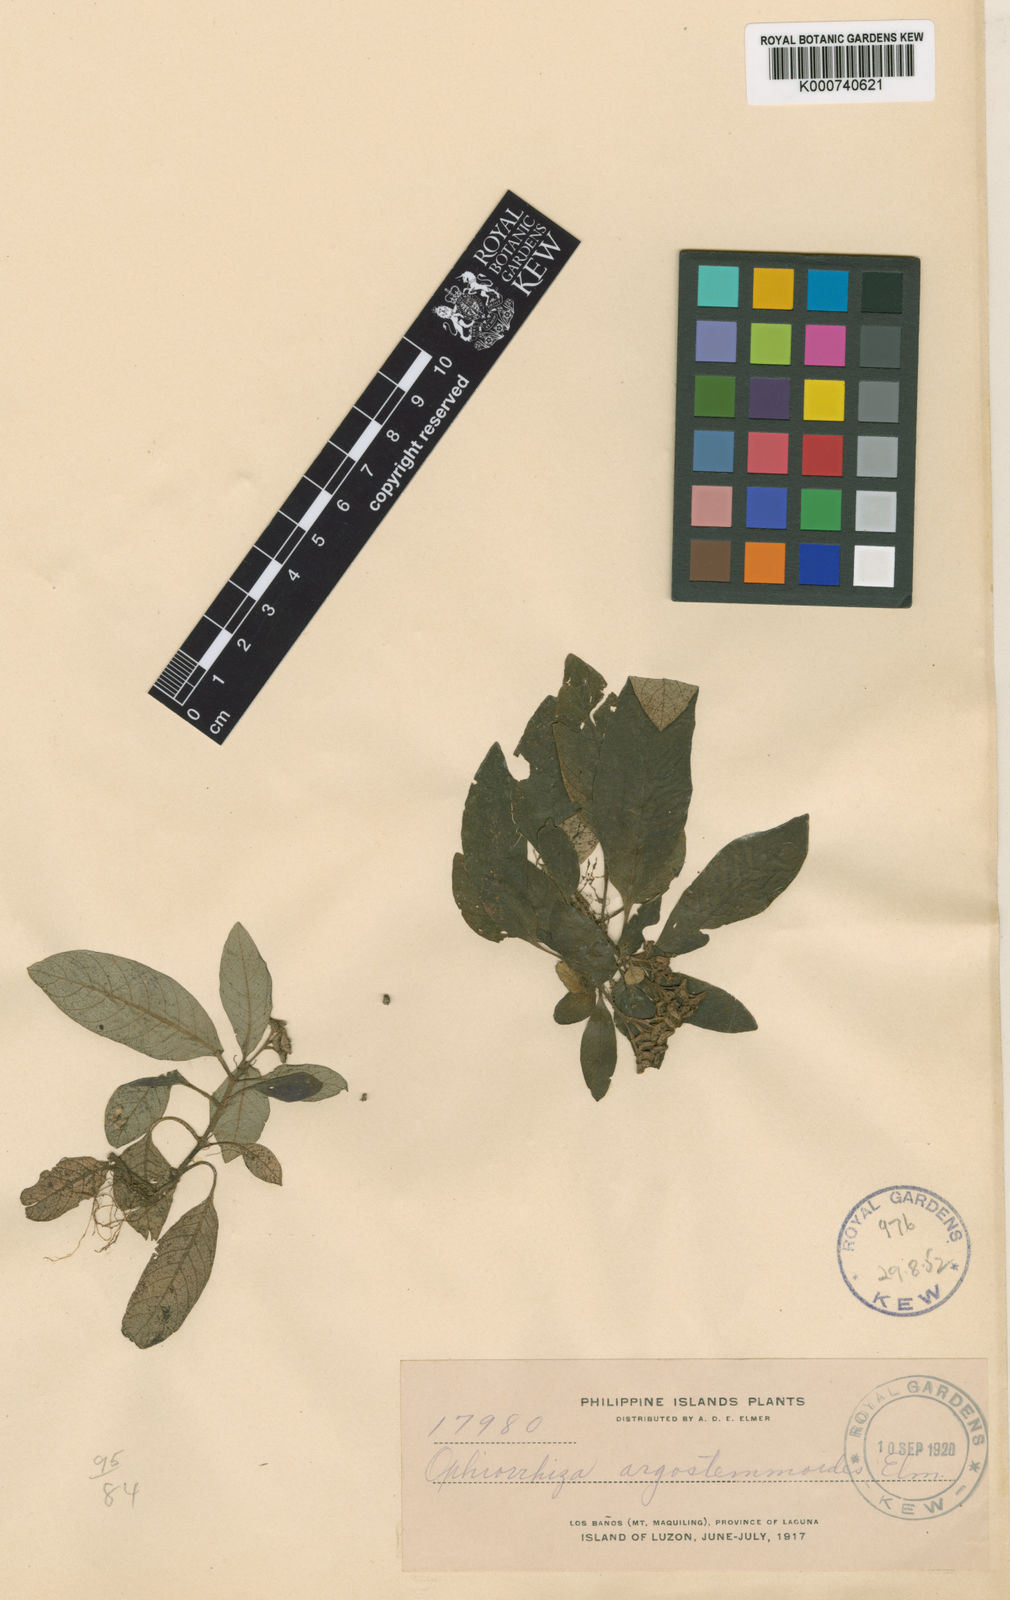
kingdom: Plantae
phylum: Tracheophyta
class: Magnoliopsida
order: Gentianales
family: Rubiaceae
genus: Ophiorrhiza
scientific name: Ophiorrhiza argostemmoides
